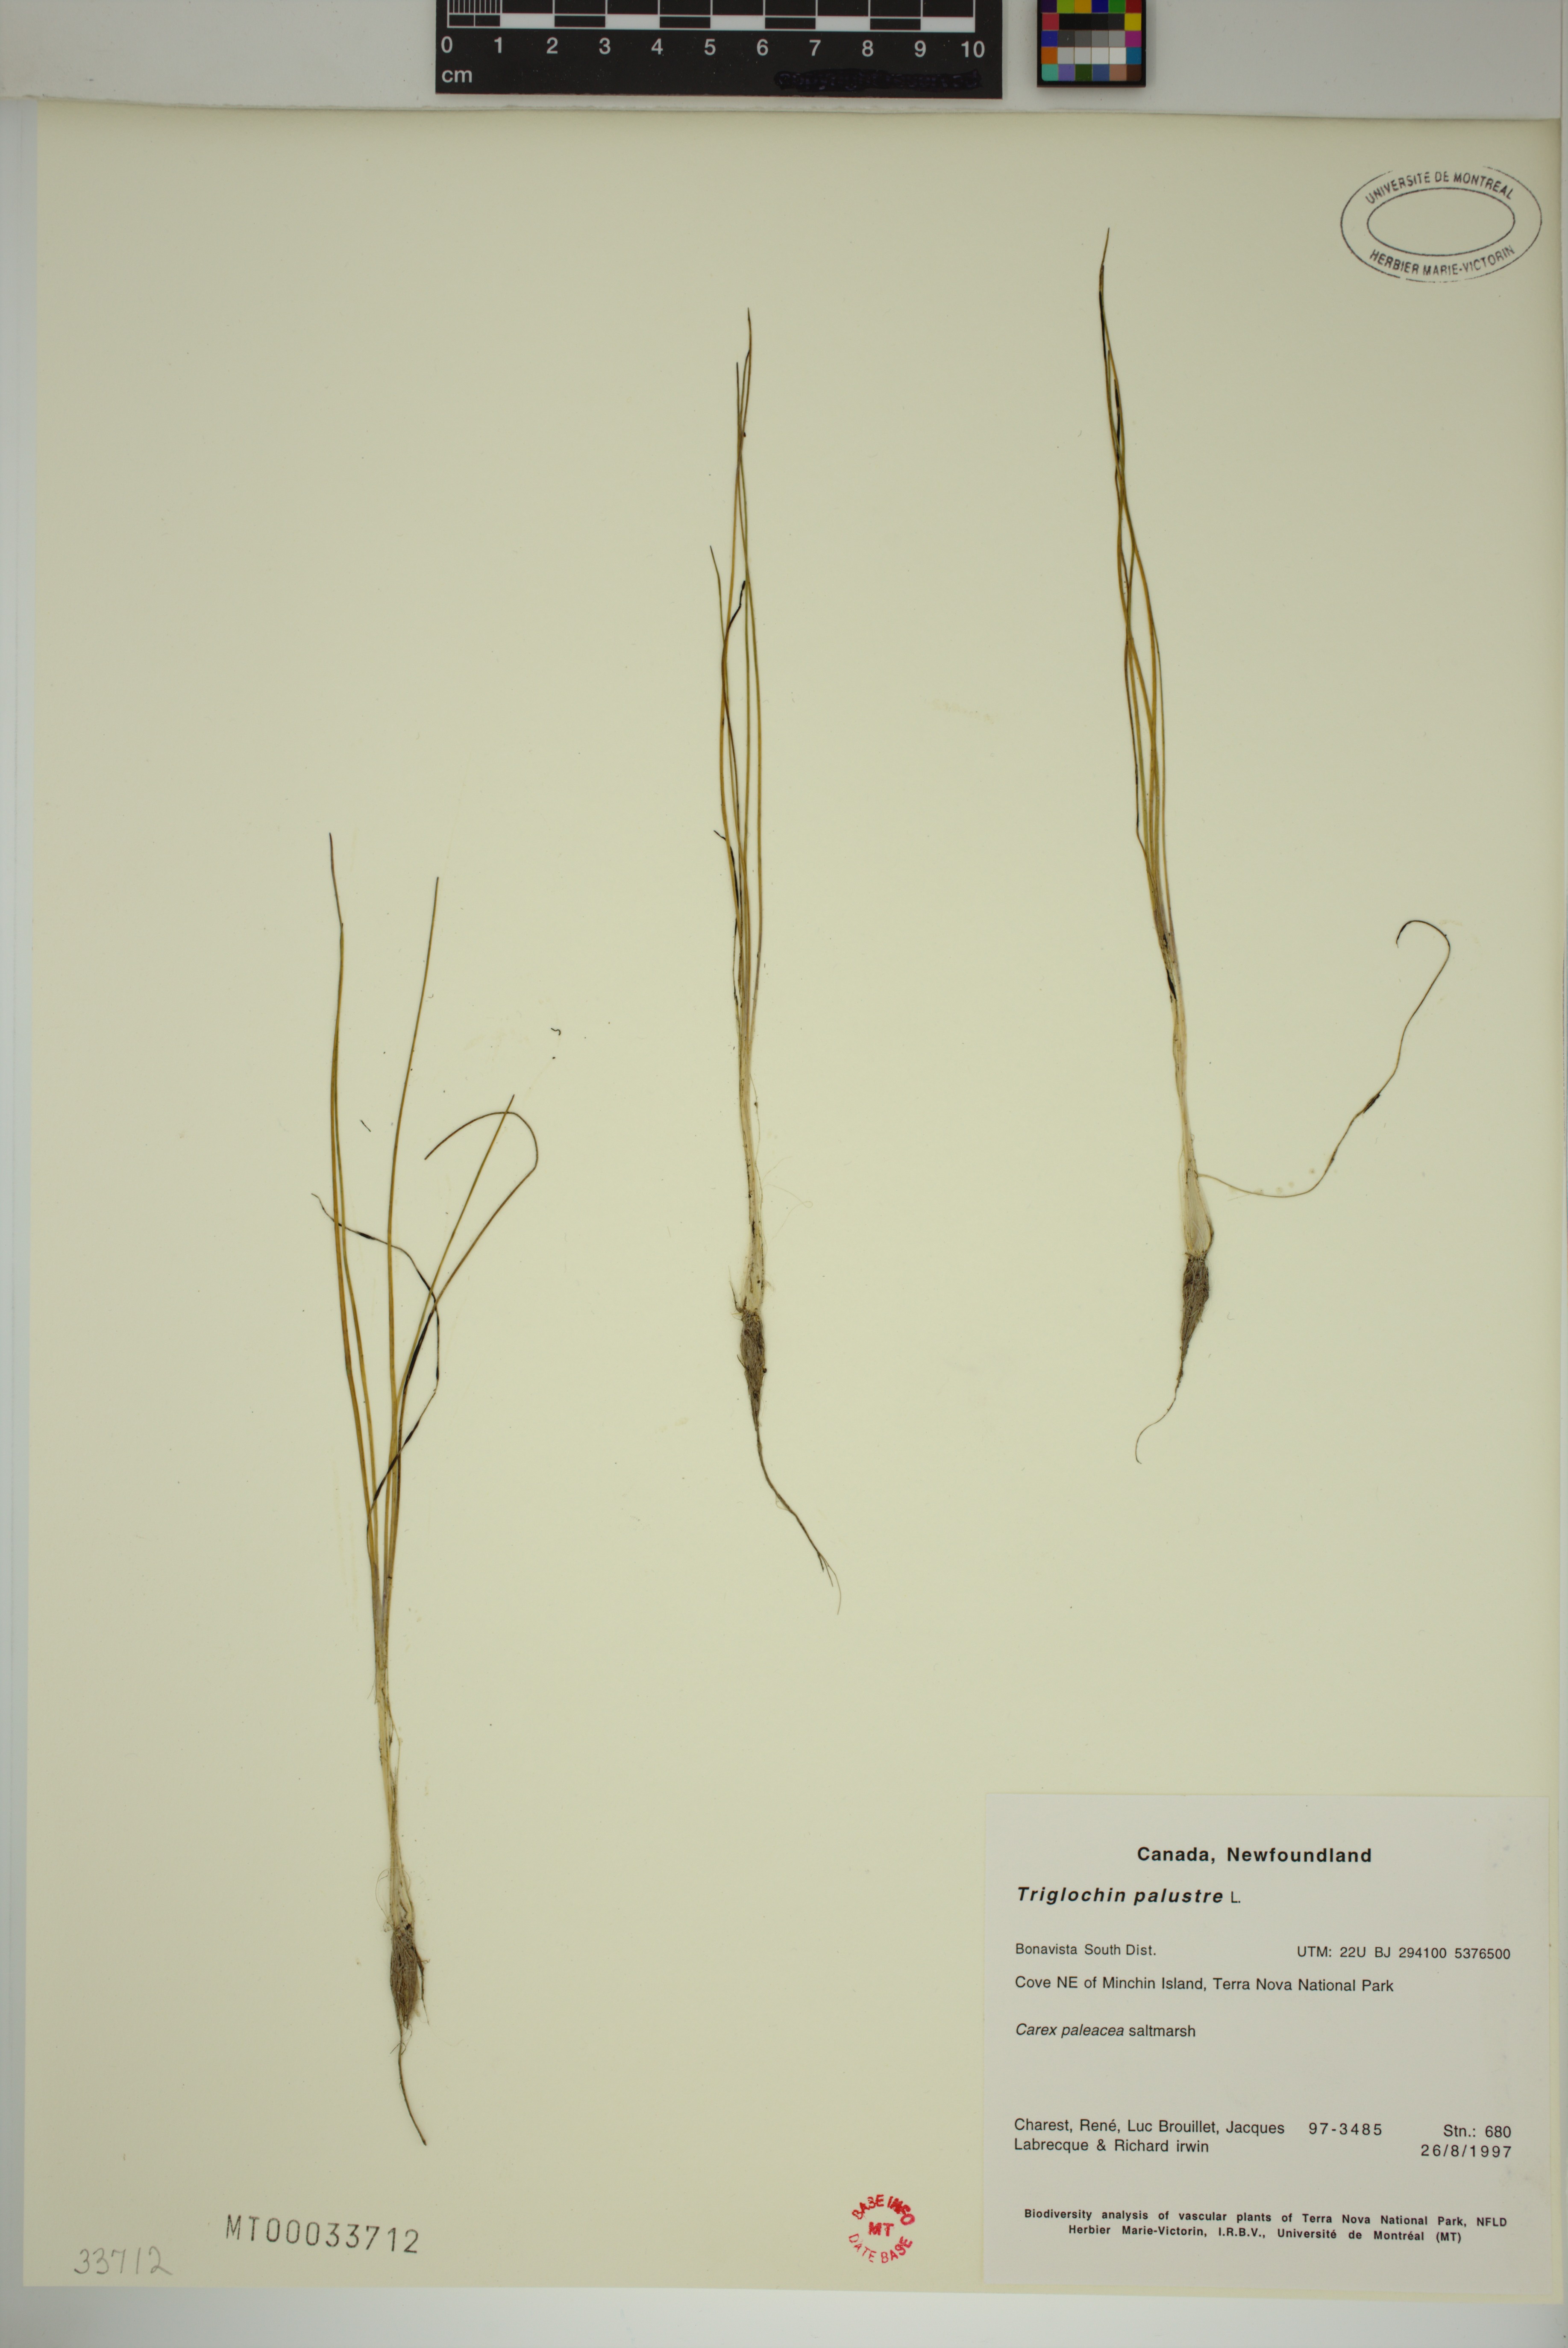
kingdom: Plantae
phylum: Tracheophyta
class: Liliopsida
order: Alismatales
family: Juncaginaceae
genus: Triglochin
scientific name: Triglochin palustris
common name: Marsh arrowgrass
